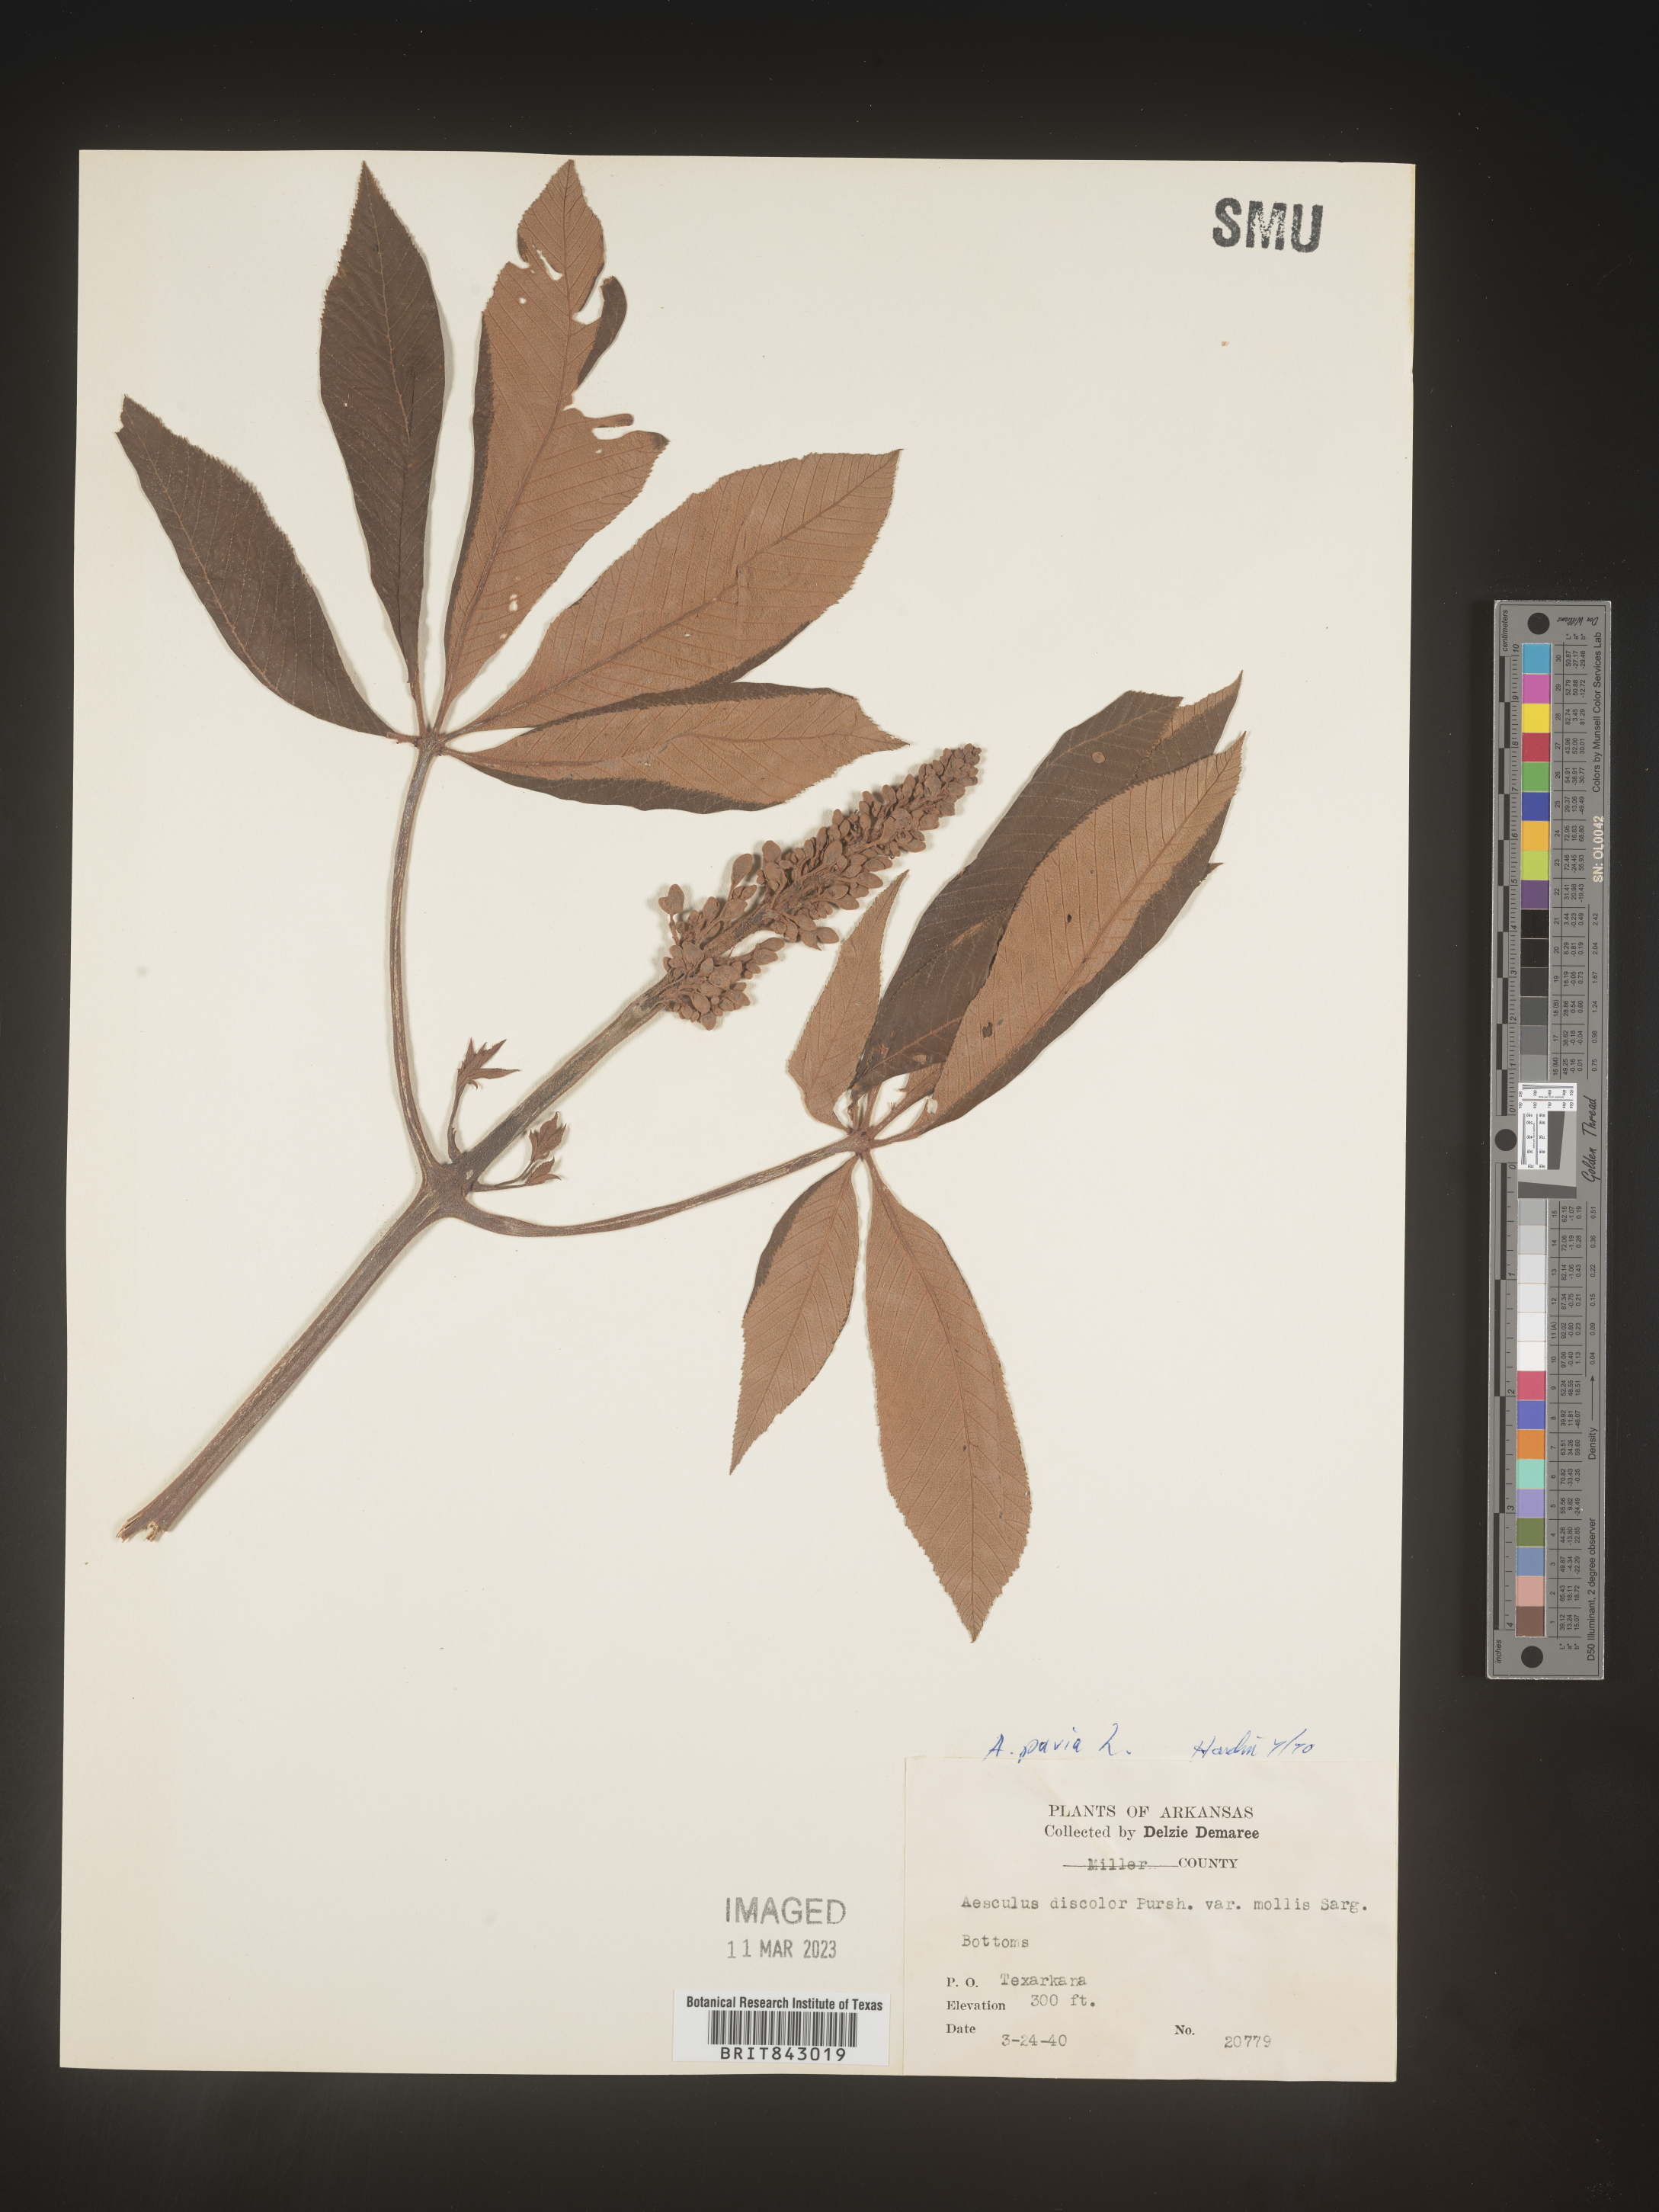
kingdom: Plantae
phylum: Tracheophyta
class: Magnoliopsida
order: Sapindales
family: Sapindaceae
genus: Aesculus
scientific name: Aesculus pavia
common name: Red buckeye
